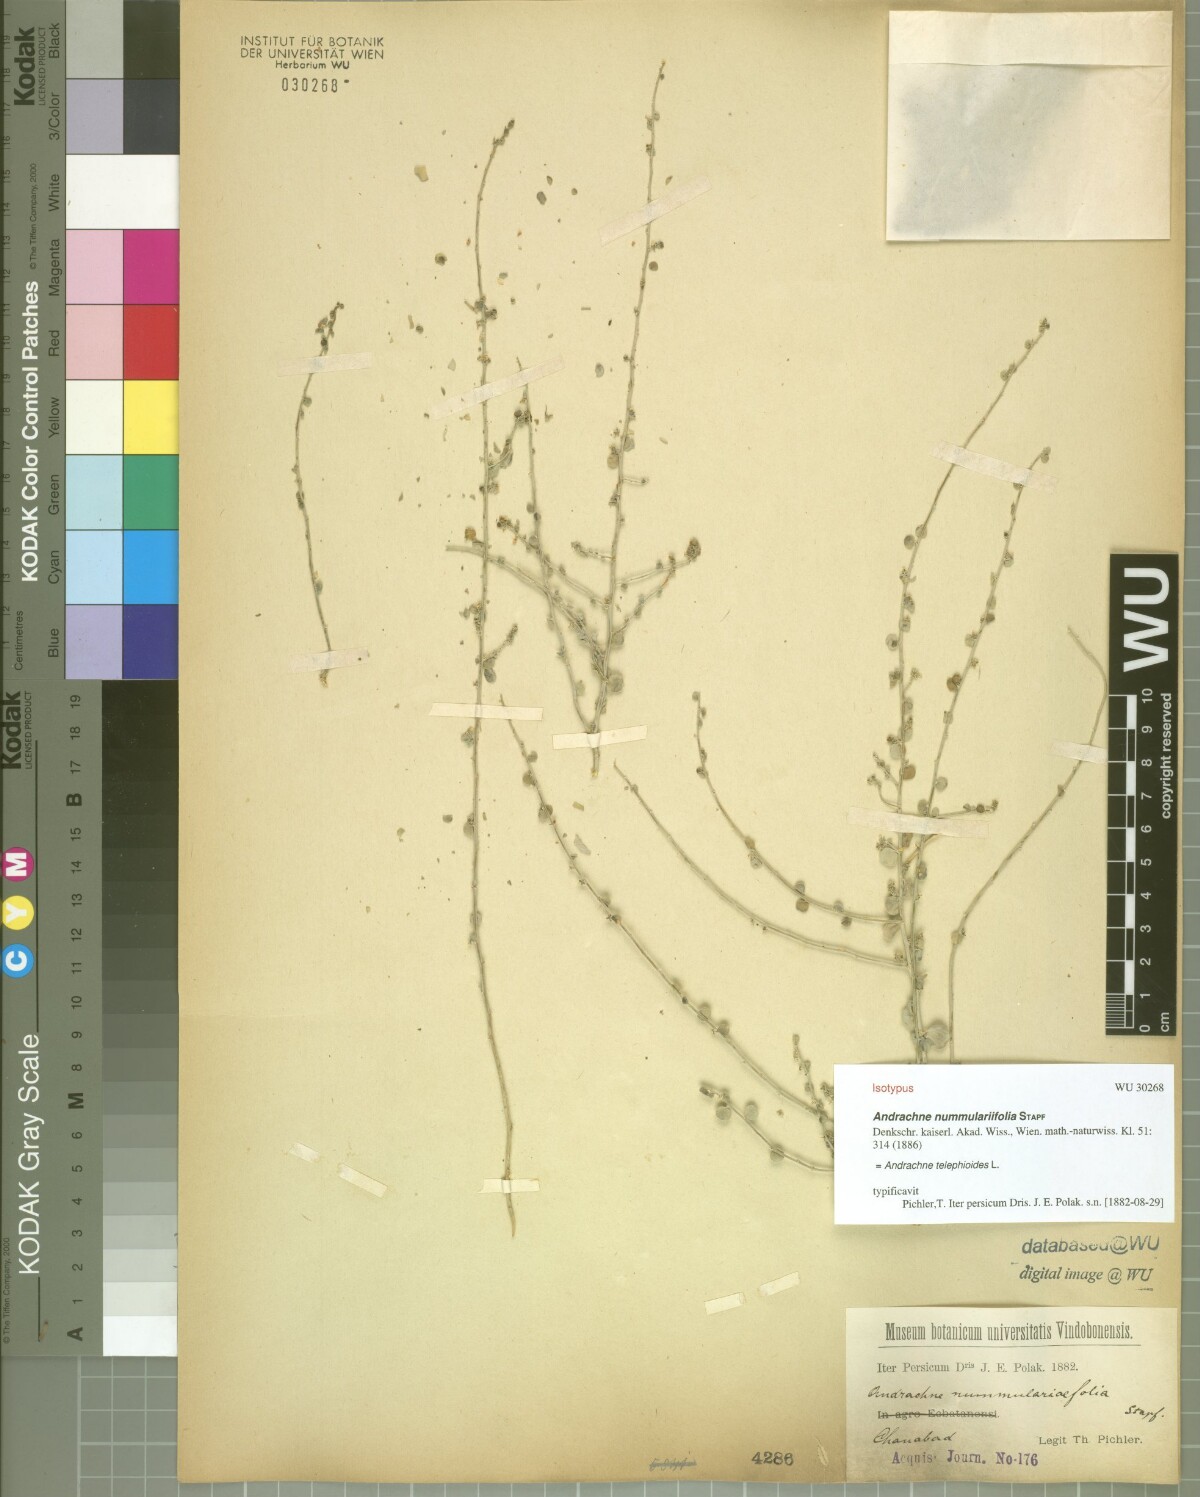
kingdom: Plantae
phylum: Tracheophyta
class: Magnoliopsida
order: Malpighiales
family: Phyllanthaceae
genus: Andrachne
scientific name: Andrachne telephioides
